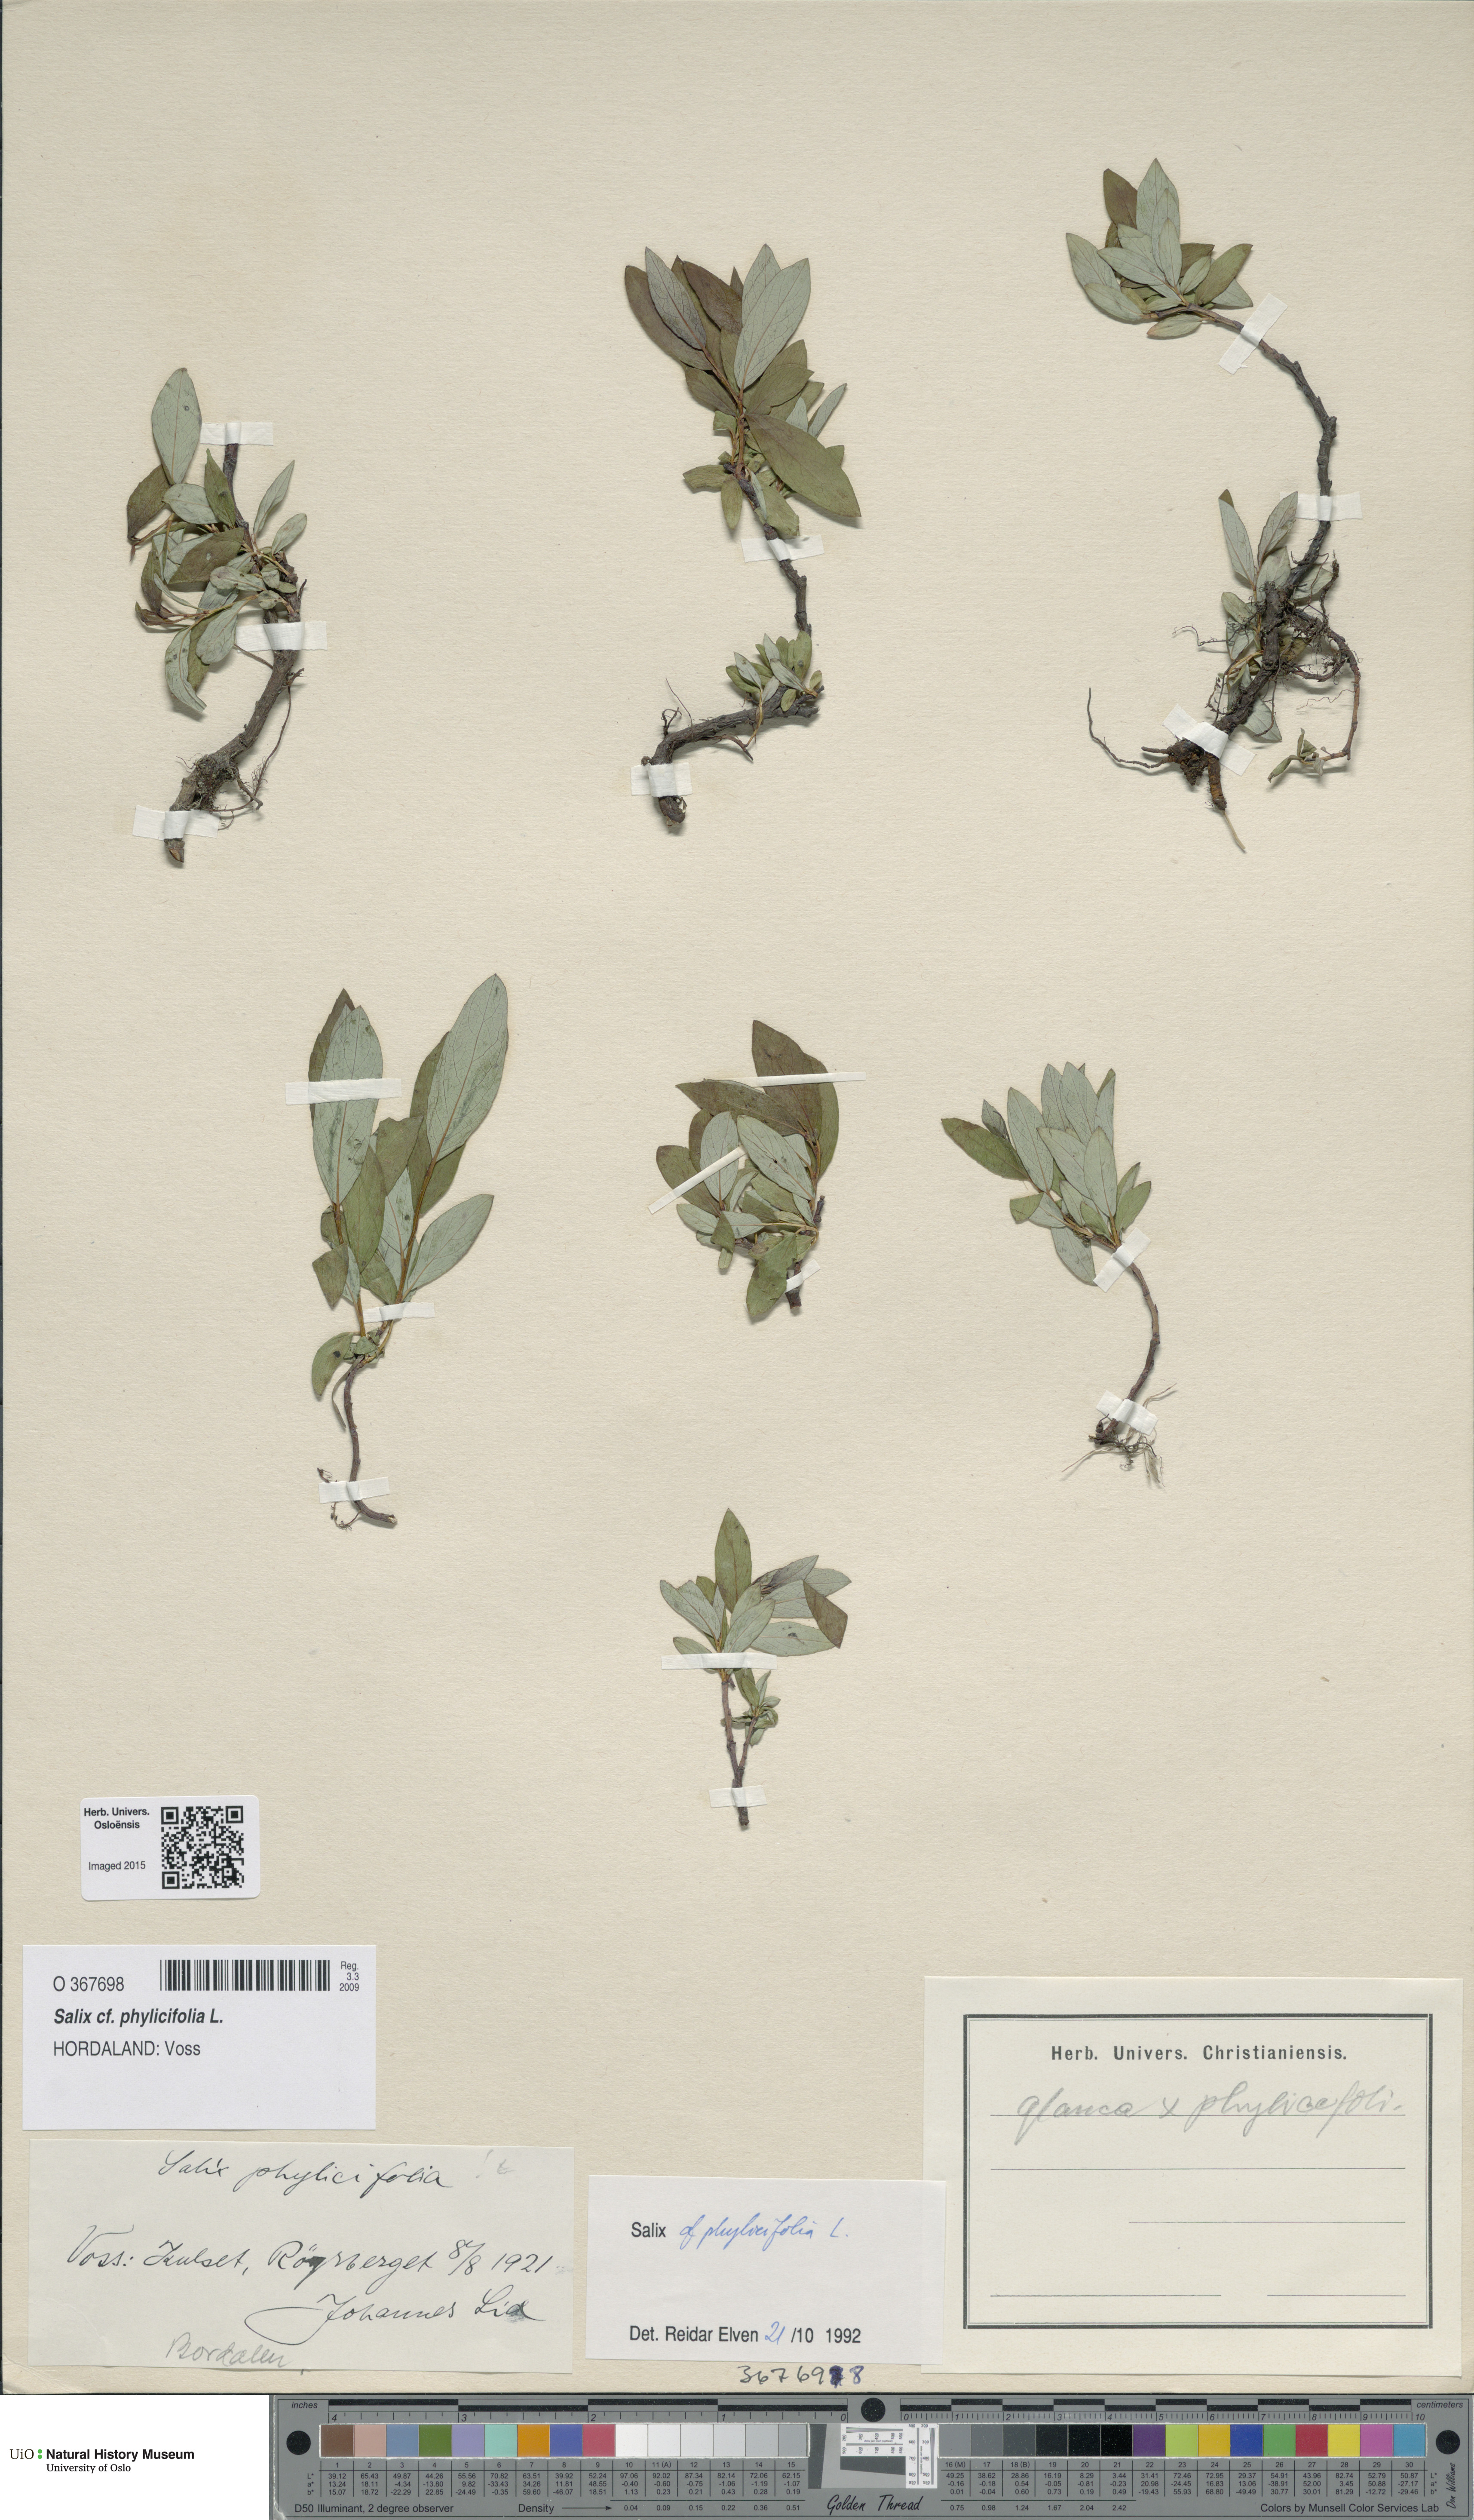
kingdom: Plantae
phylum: Tracheophyta
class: Magnoliopsida
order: Malpighiales
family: Salicaceae
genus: Salix
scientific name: Salix phylicifolia
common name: Tea-leaved willow
